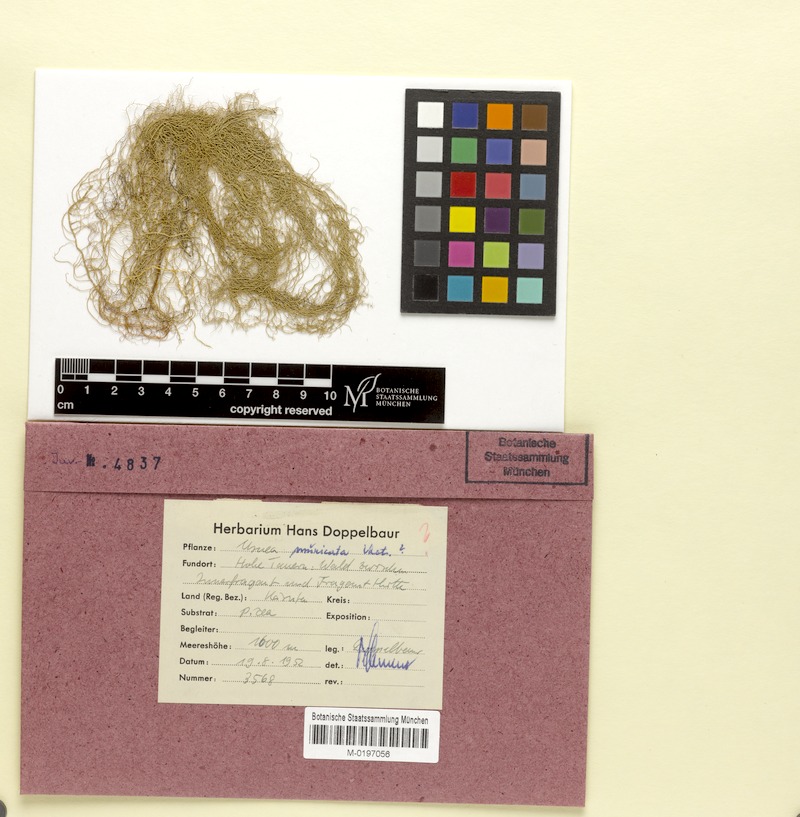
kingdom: Fungi
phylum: Ascomycota
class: Lecanoromycetes
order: Lecanorales
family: Parmeliaceae
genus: Usnea
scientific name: Usnea filipendula
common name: Fishbone beard lichen
